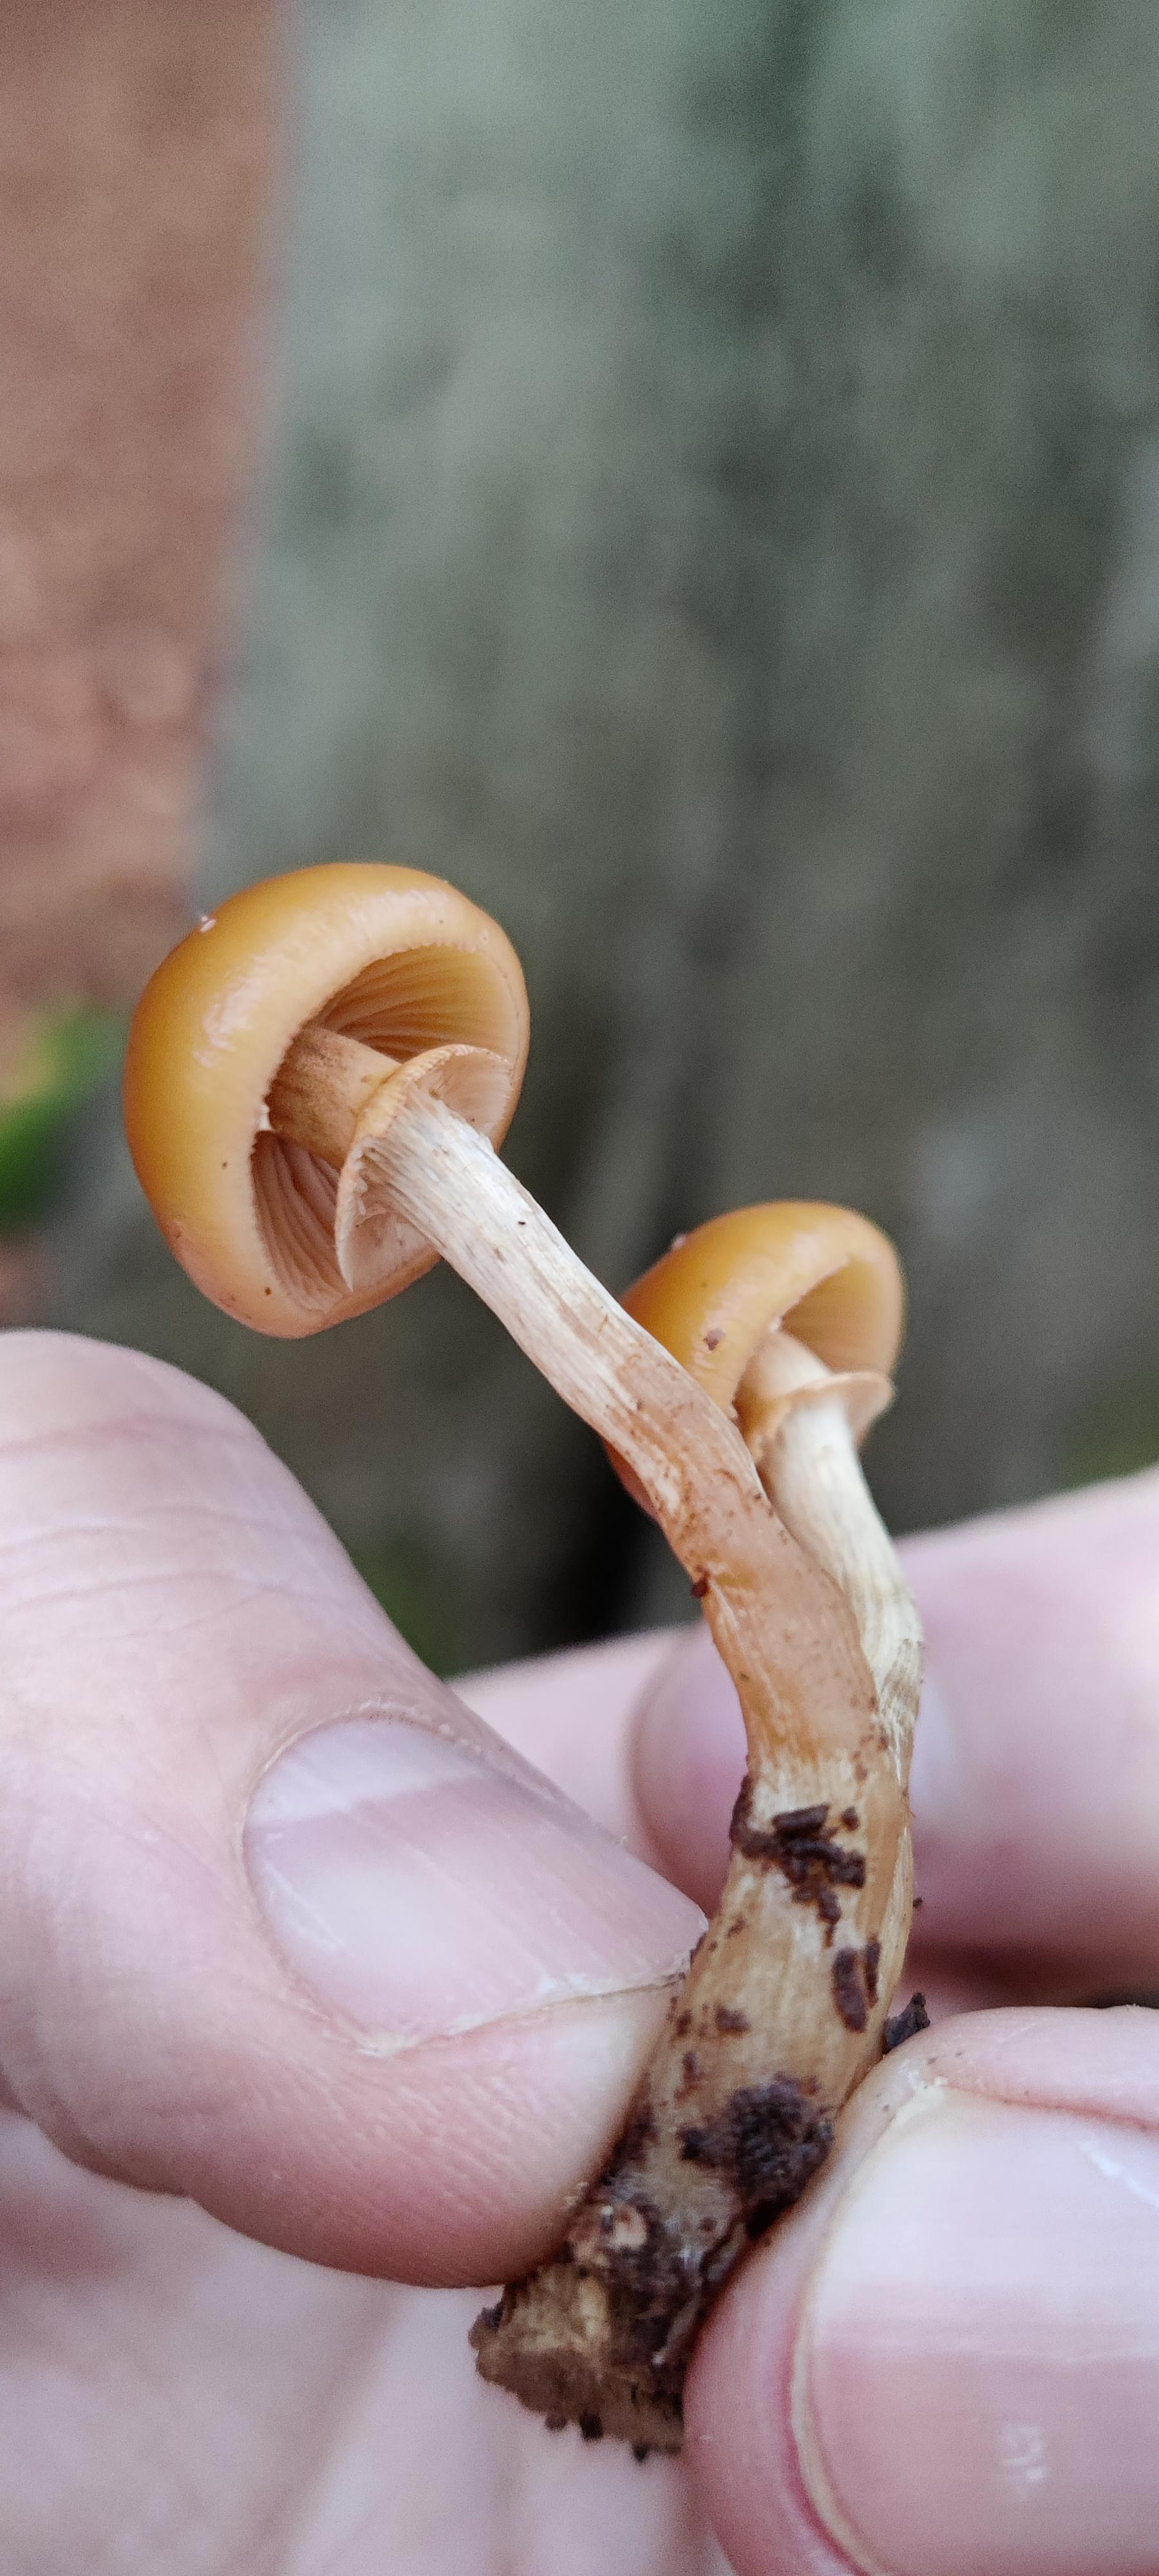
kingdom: Fungi
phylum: Basidiomycota
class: Agaricomycetes
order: Agaricales
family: Hymenogastraceae
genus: Galerina
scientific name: Galerina marginata
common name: randbæltet hjelmhat
